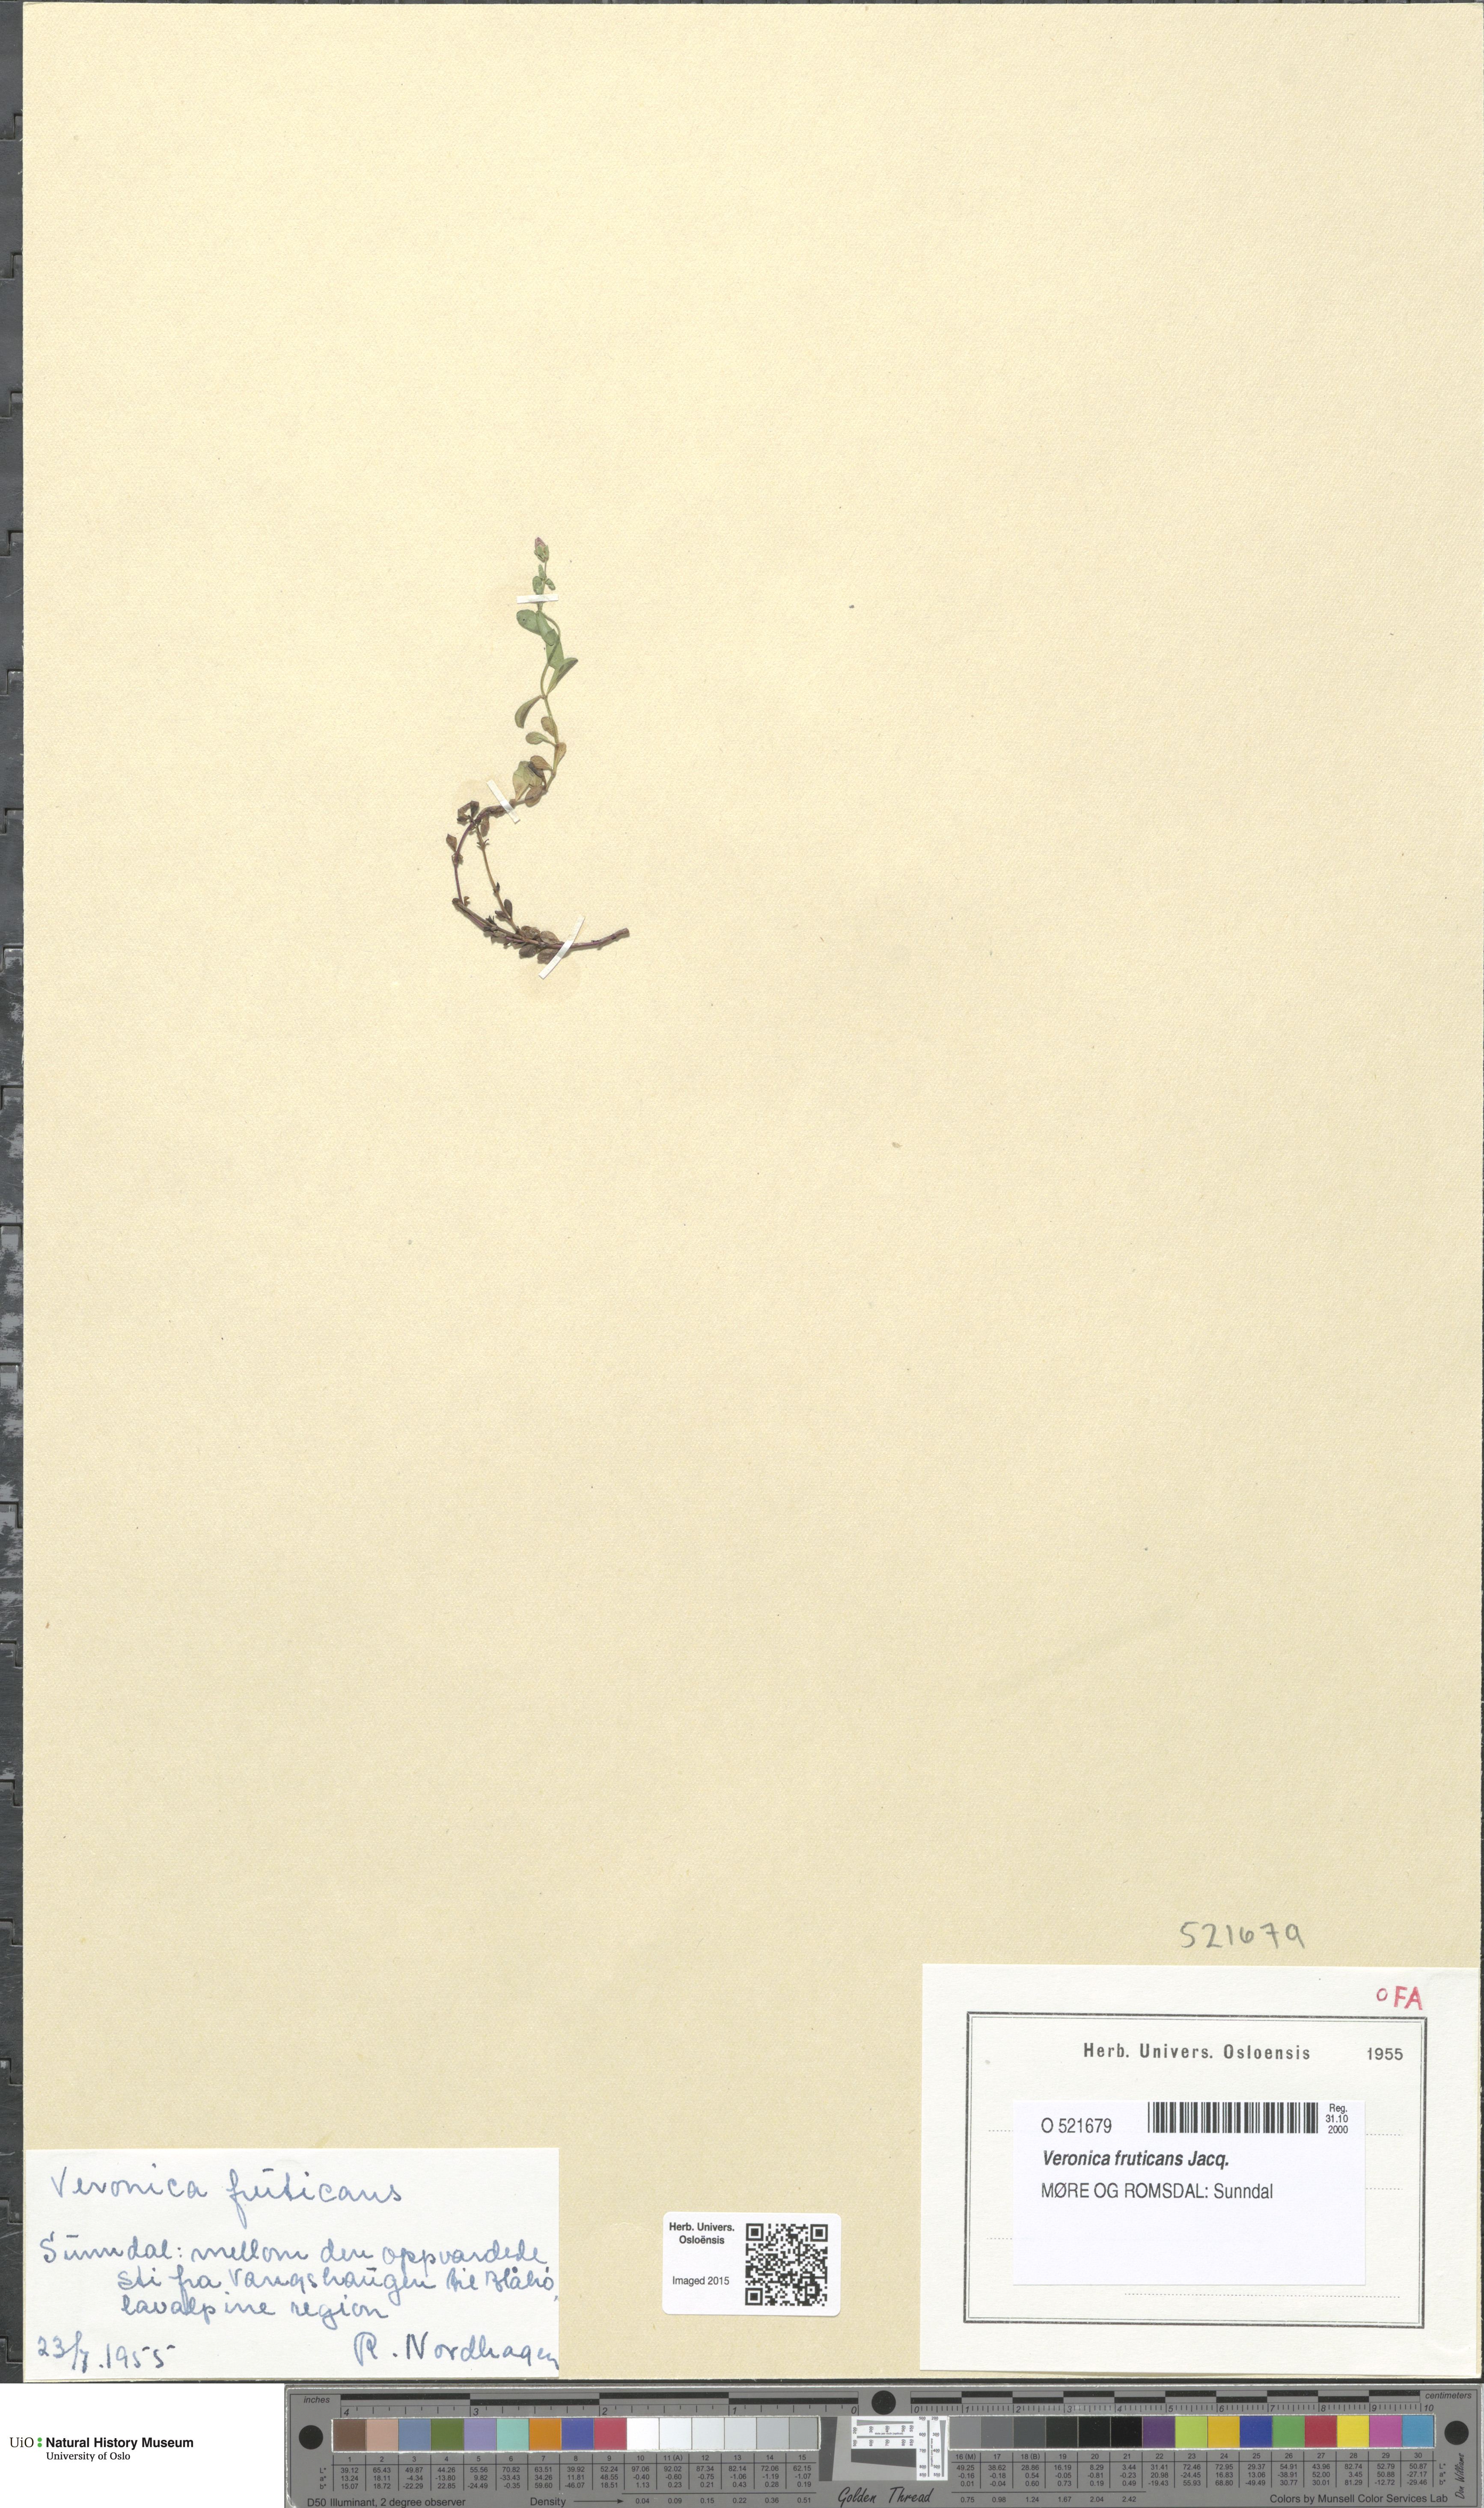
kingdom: Plantae
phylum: Tracheophyta
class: Magnoliopsida
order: Lamiales
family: Plantaginaceae
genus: Veronica
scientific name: Veronica fruticans
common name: Rock speedwell
